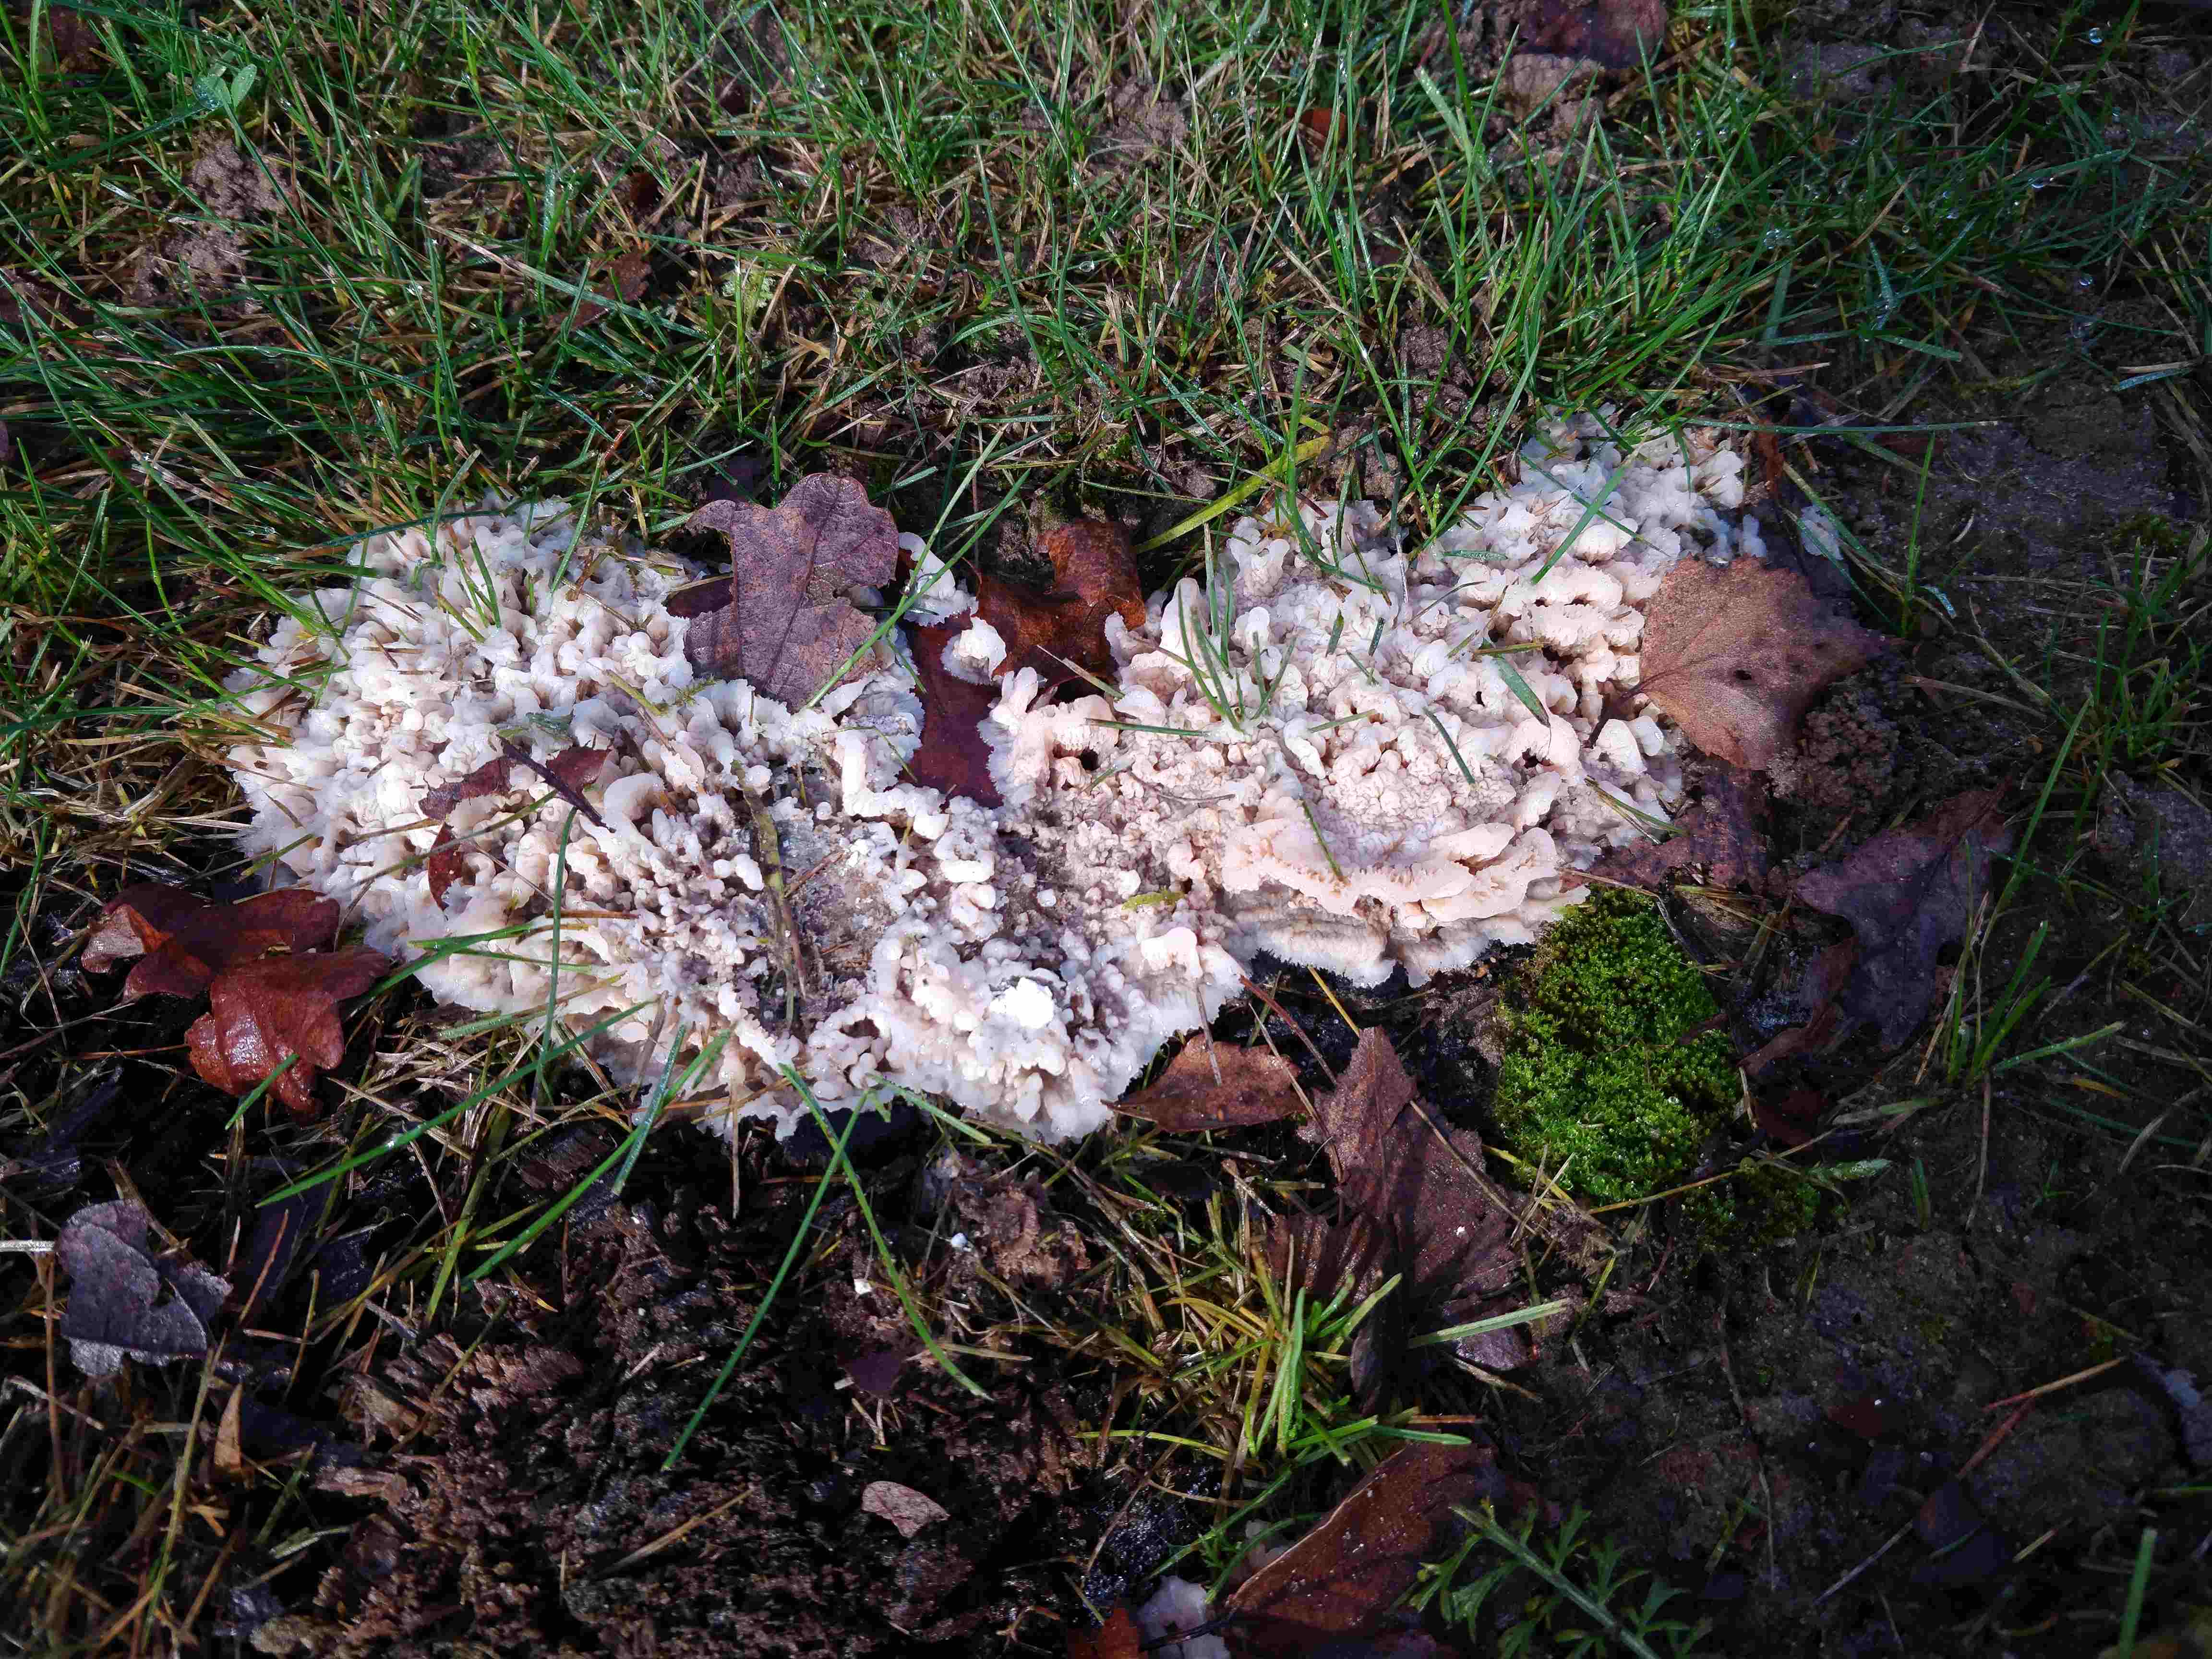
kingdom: Fungi
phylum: Basidiomycota
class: Agaricomycetes
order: Polyporales
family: Meruliaceae
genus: Phlebia
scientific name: Phlebia tremellosa
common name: bævrende åresvamp
